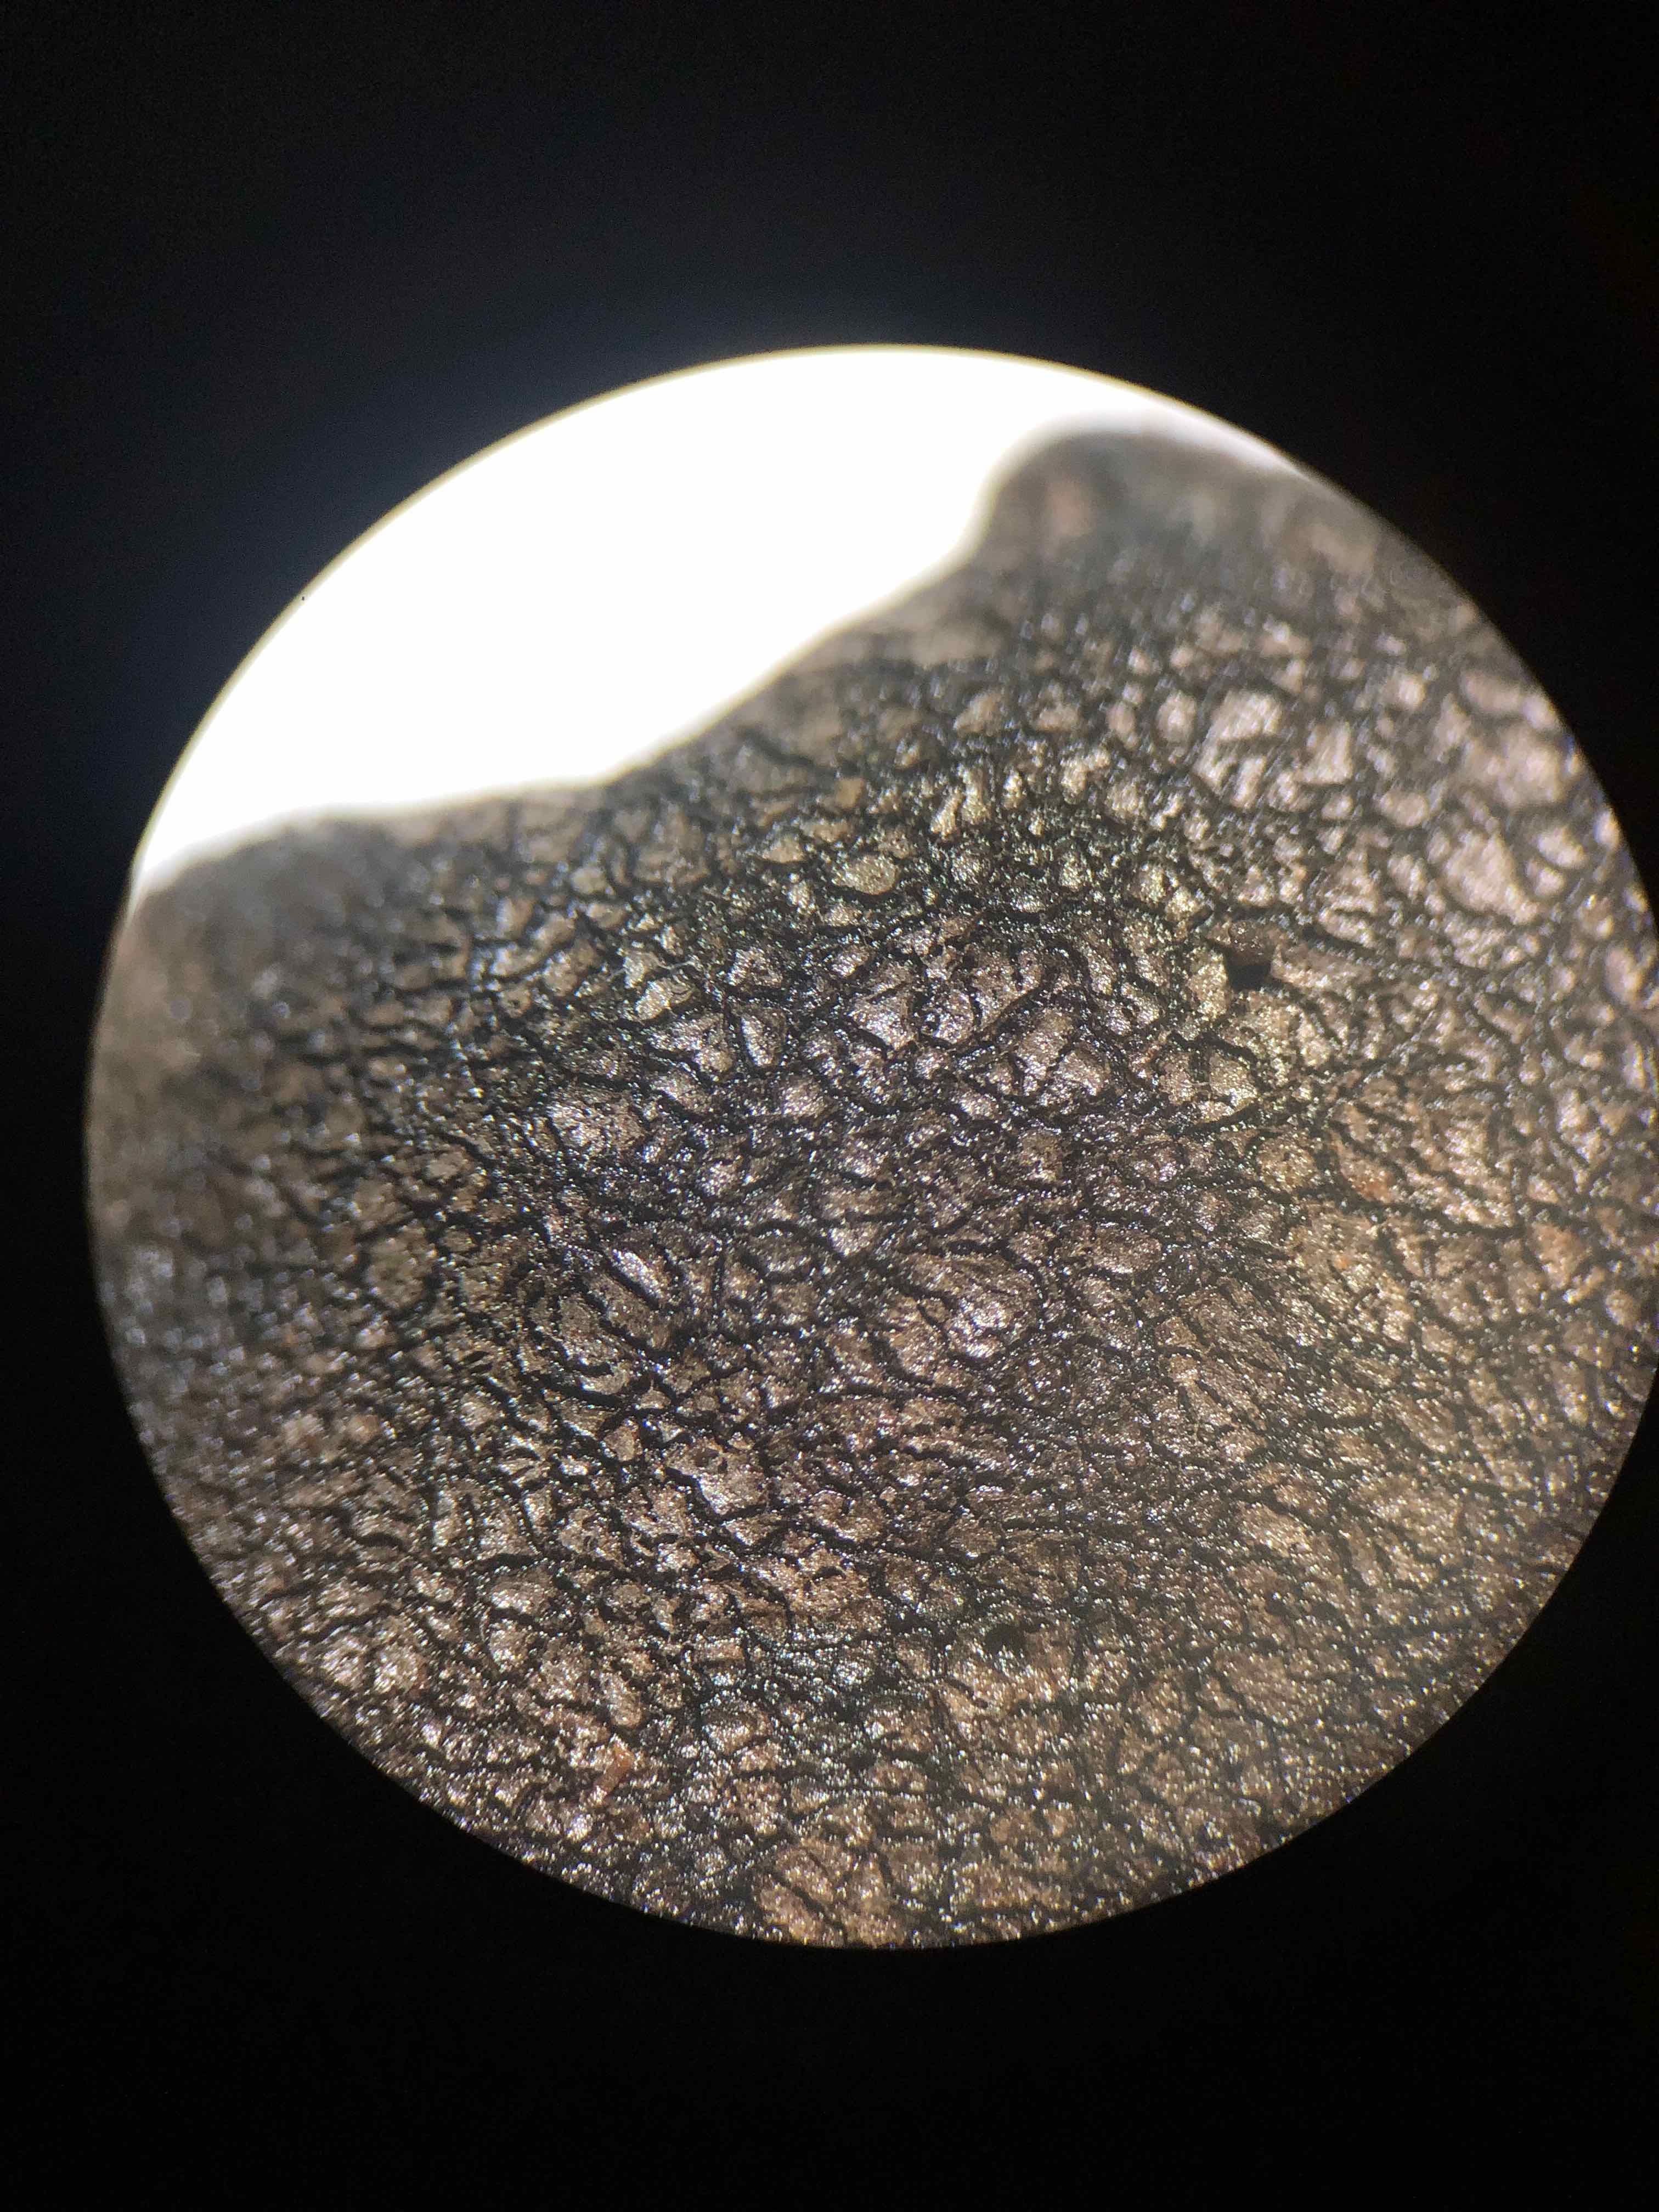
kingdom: Fungi
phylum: Ascomycota
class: Sordariomycetes
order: Xylariales
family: Xylariaceae
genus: Xylaria
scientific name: Xylaria longipes
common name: slank stødsvamp
